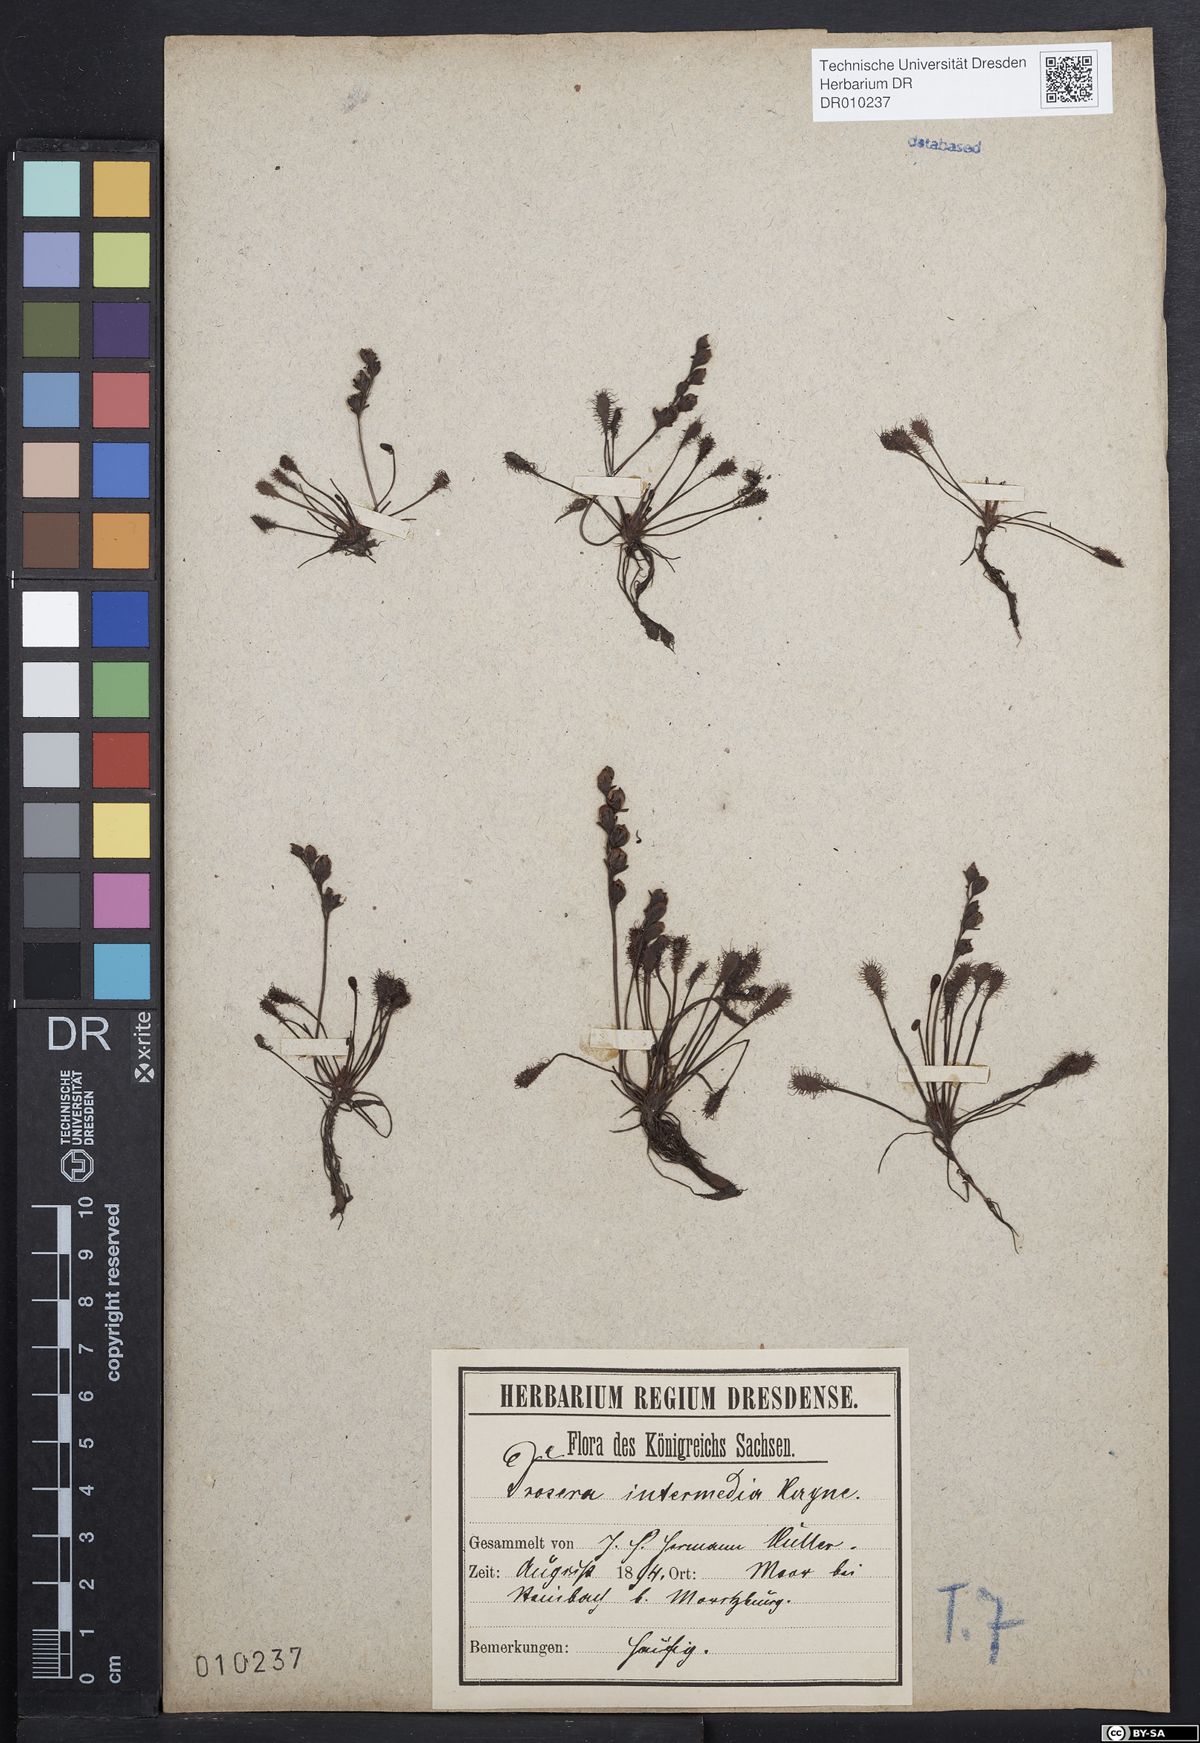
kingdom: Plantae
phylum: Tracheophyta
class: Magnoliopsida
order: Caryophyllales
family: Droseraceae
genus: Drosera
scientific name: Drosera intermedia
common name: Oblong-leaved sundew
